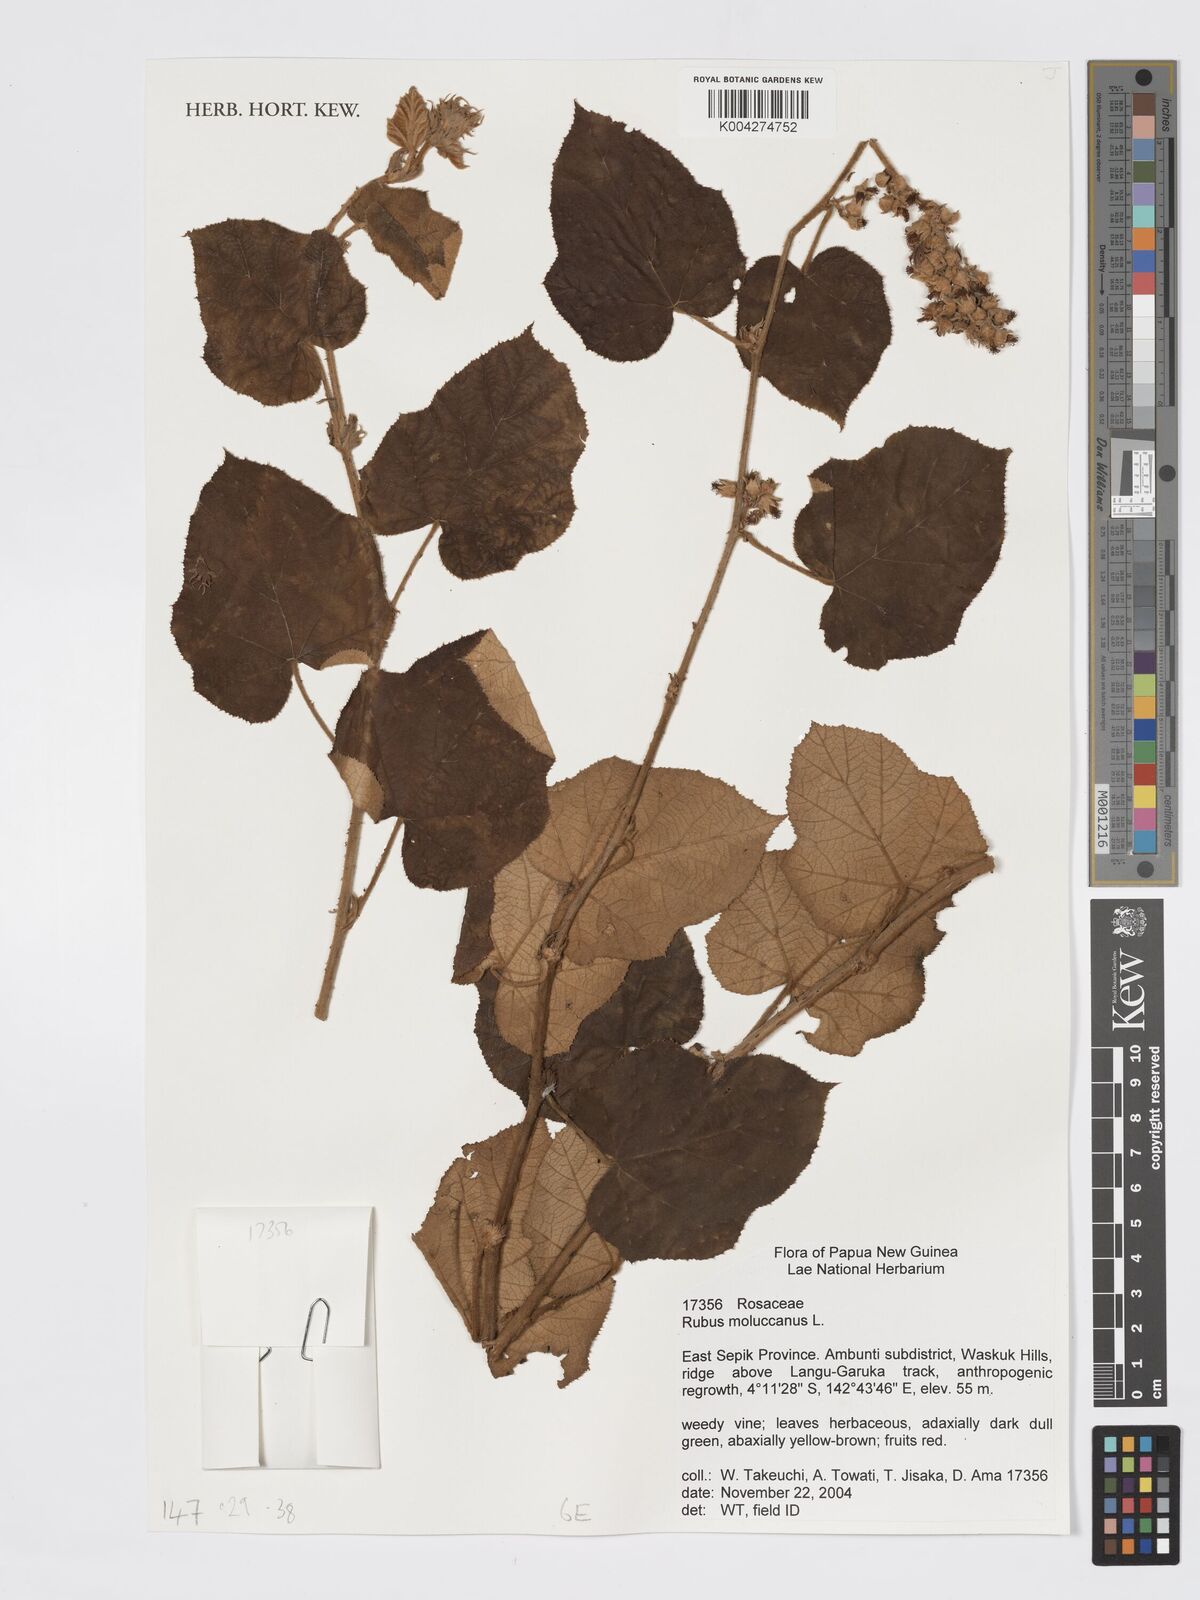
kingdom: Plantae
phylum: Tracheophyta
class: Magnoliopsida
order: Rosales
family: Rosaceae
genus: Rubus
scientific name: Rubus moluccanus
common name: Wild raspberry
